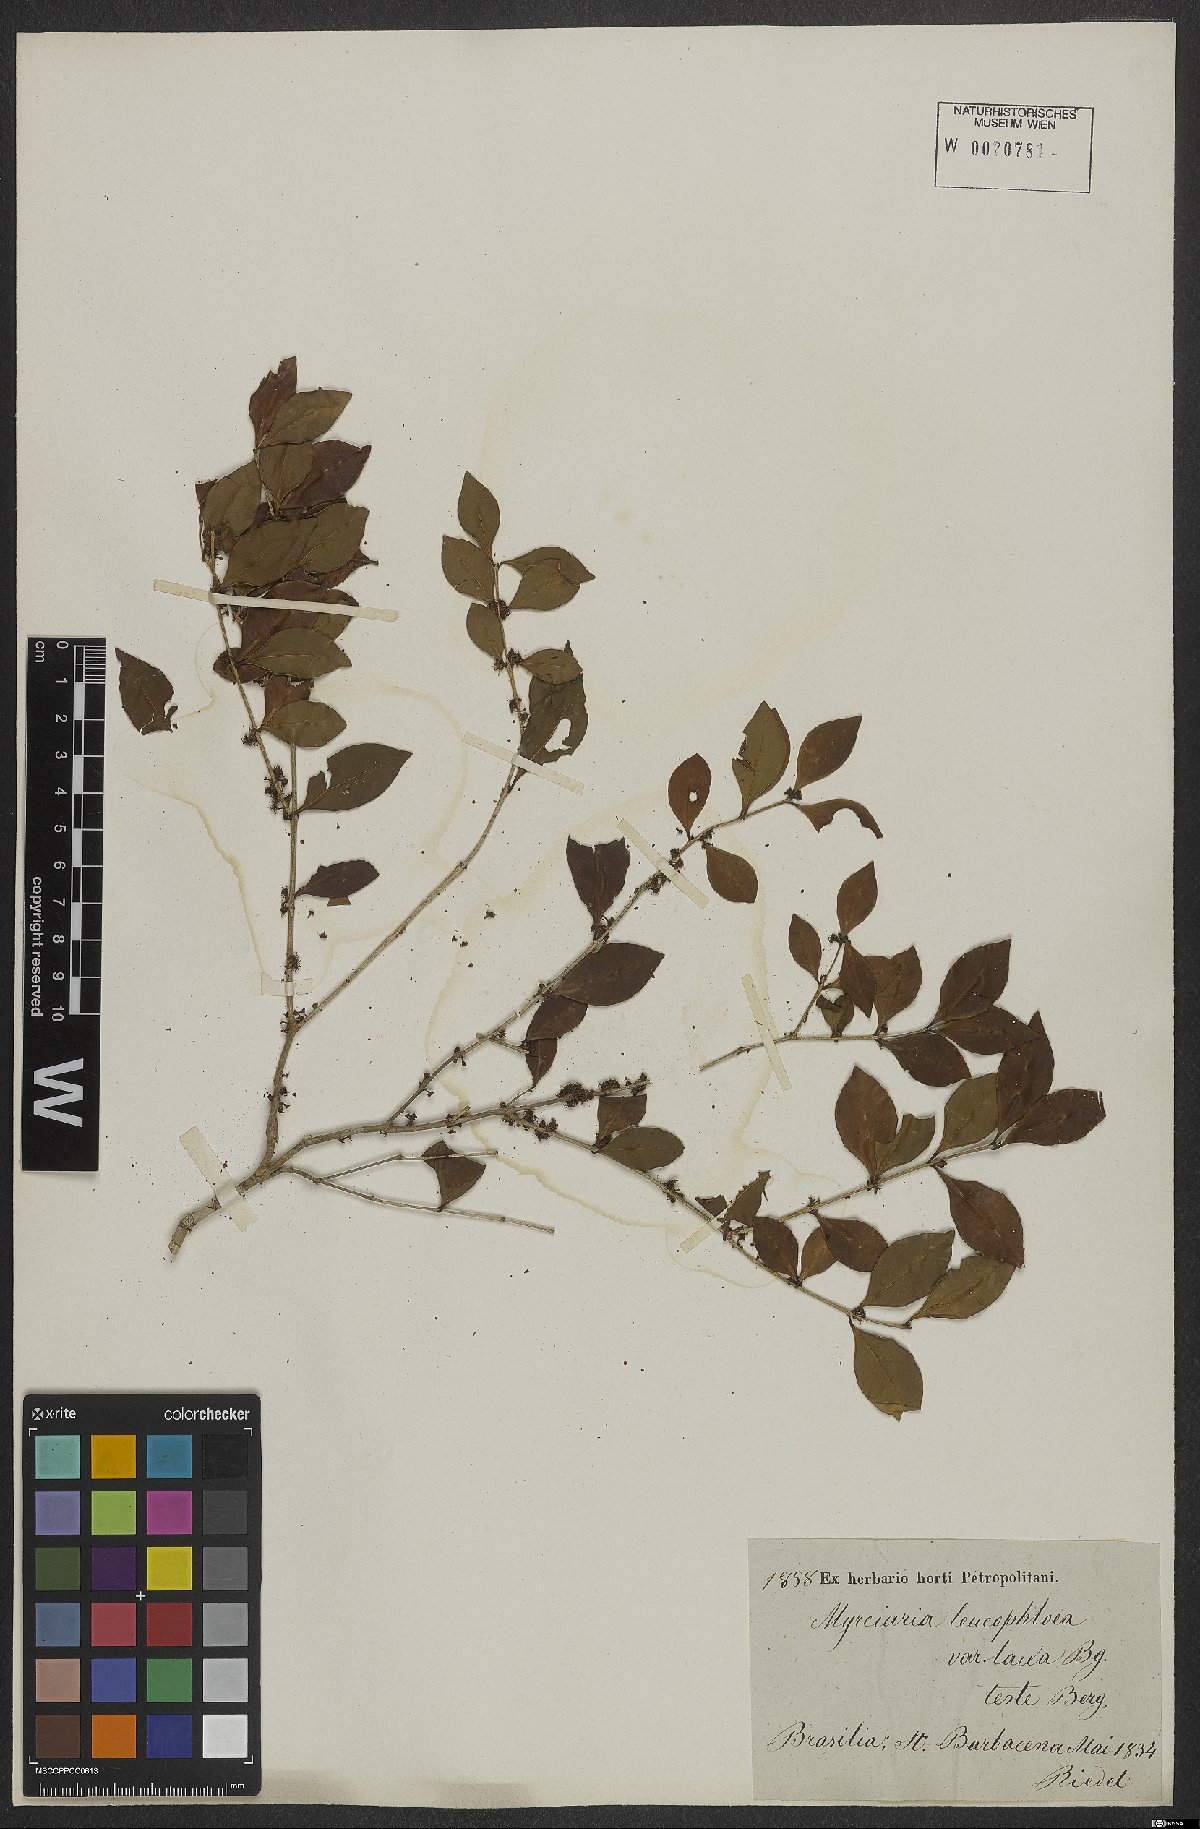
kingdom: Plantae
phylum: Tracheophyta
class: Magnoliopsida
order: Myrtales
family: Myrtaceae
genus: Myrciaria
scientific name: Myrciaria ciliolata
